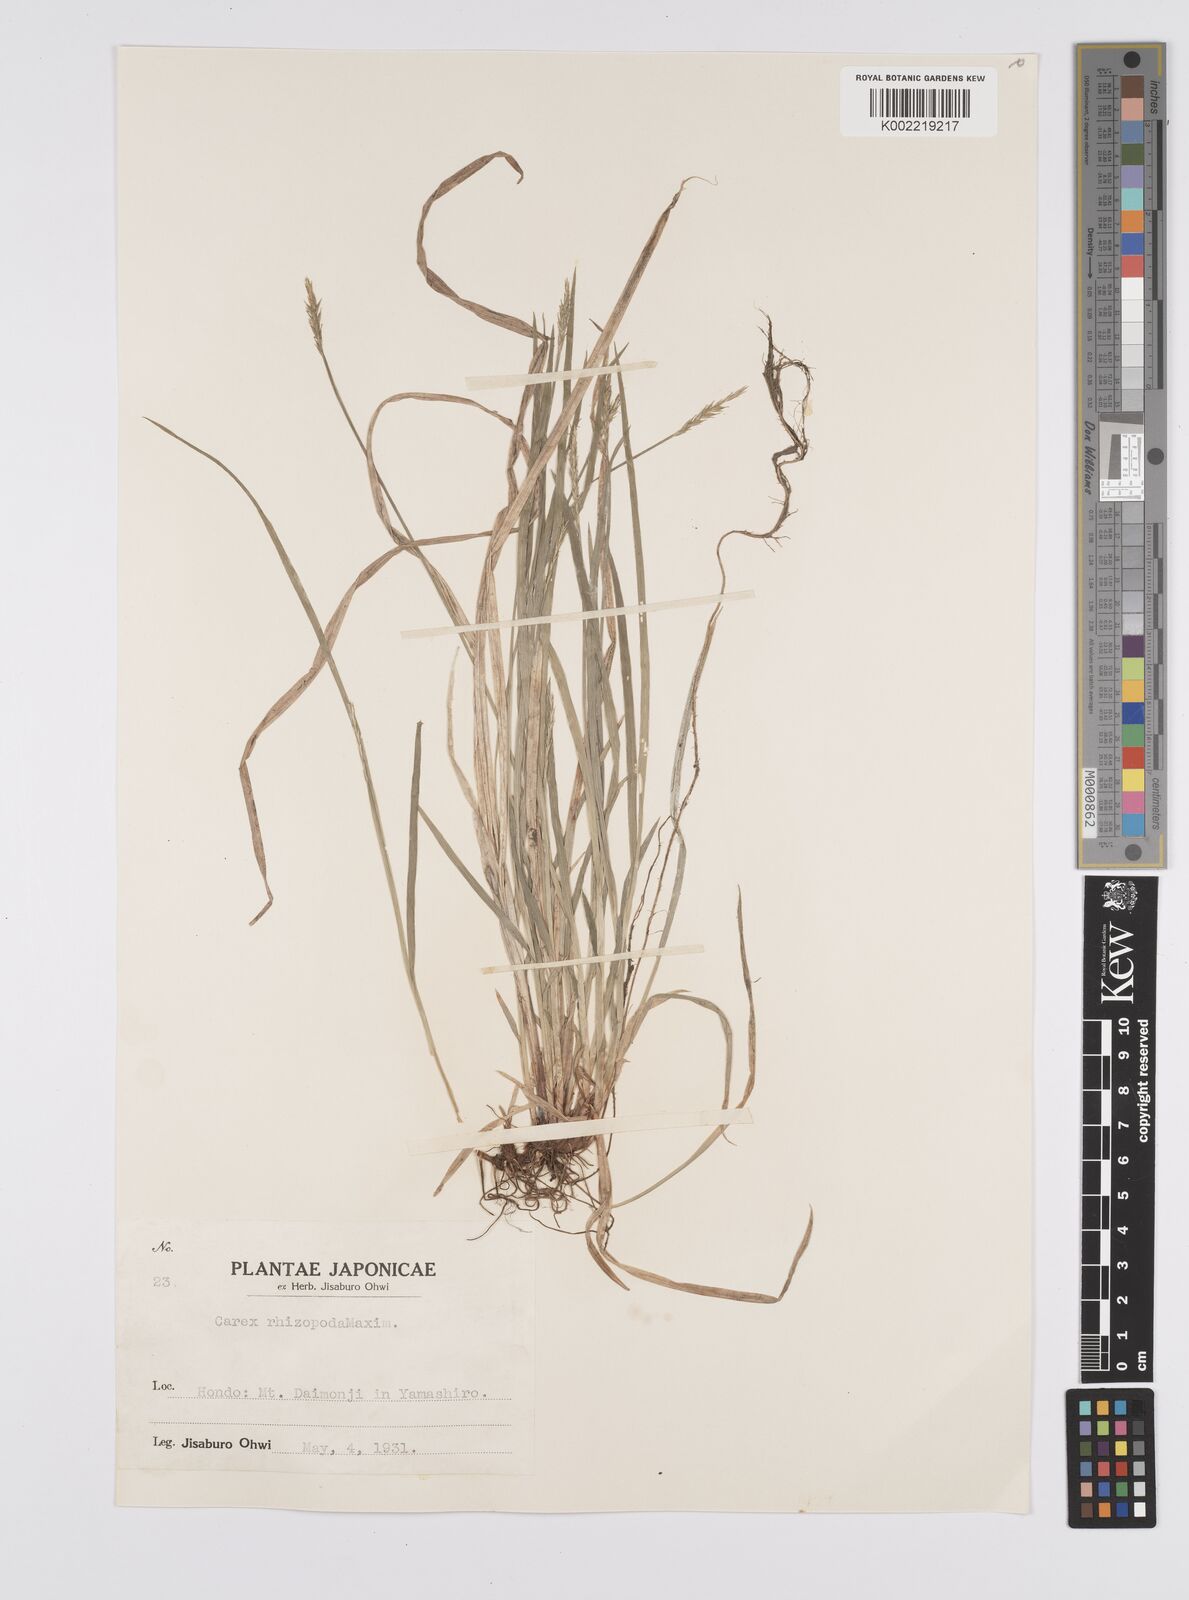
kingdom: Plantae
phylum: Tracheophyta
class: Liliopsida
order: Poales
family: Cyperaceae
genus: Carex
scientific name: Carex rhizopoda
